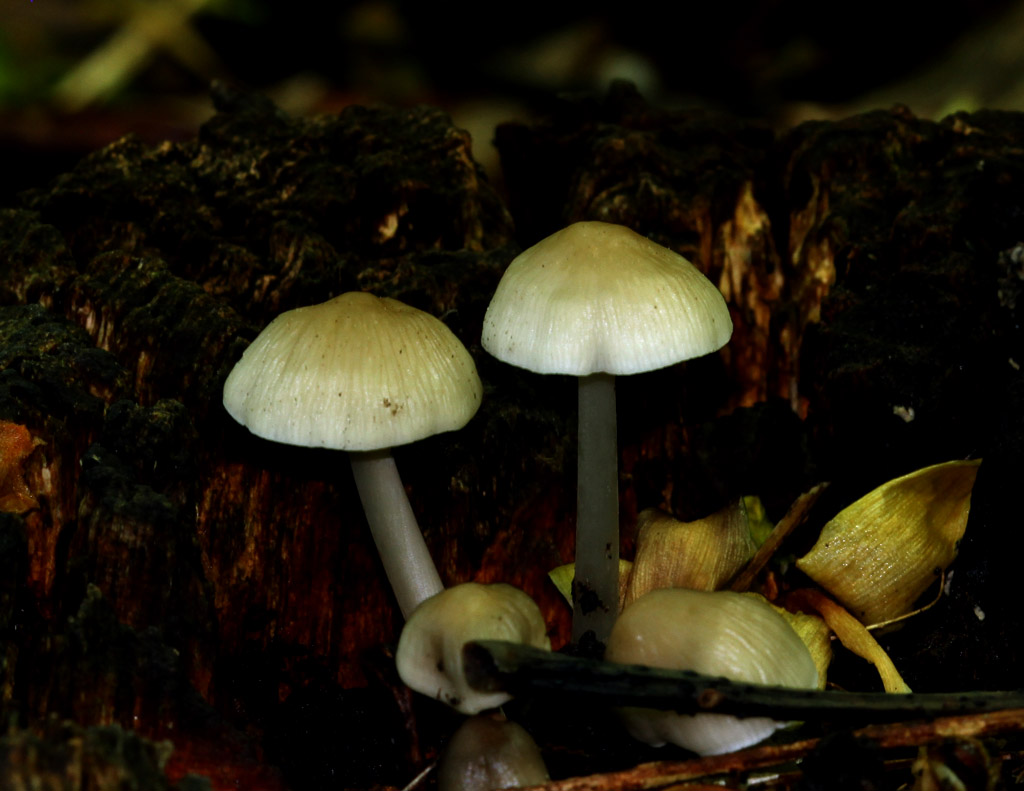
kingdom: Fungi
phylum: Basidiomycota
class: Agaricomycetes
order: Agaricales
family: Mycenaceae
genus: Mycena
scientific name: Mycena galericulata
